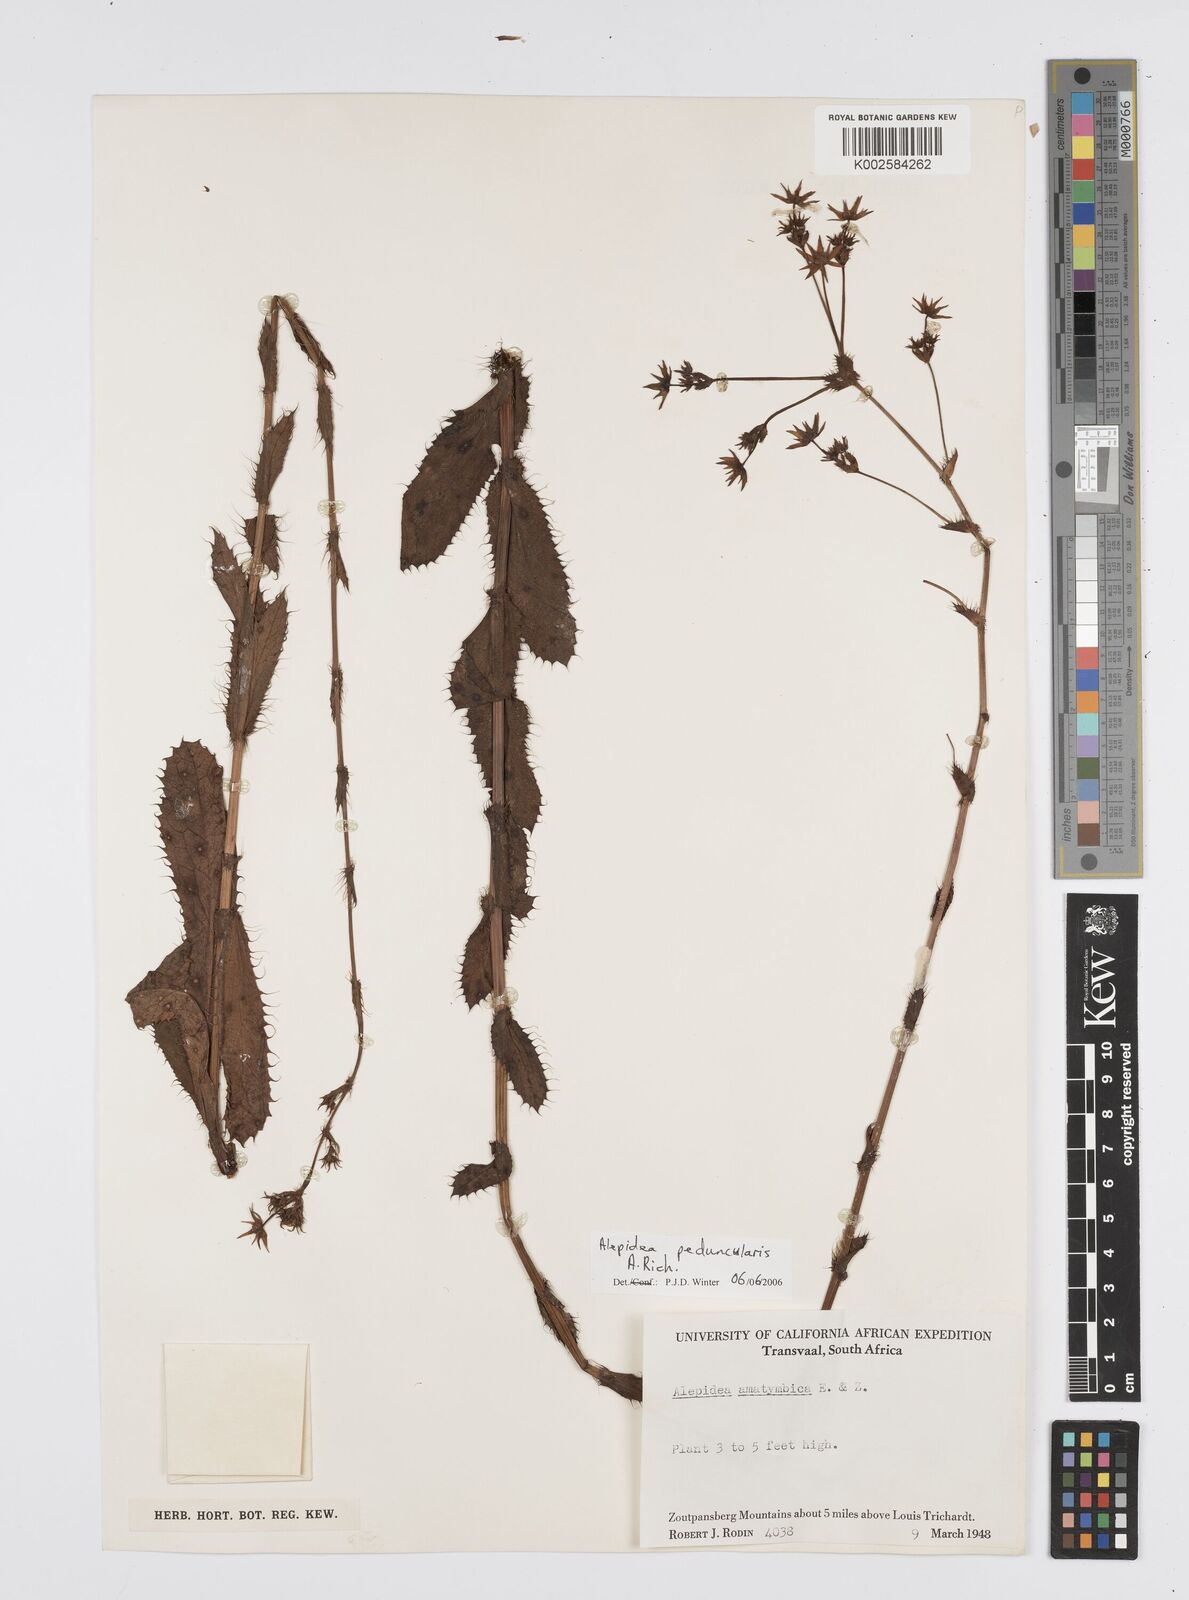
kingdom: Plantae
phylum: Tracheophyta
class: Magnoliopsida
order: Apiales
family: Apiaceae
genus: Alepidea
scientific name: Alepidea peduncularis
